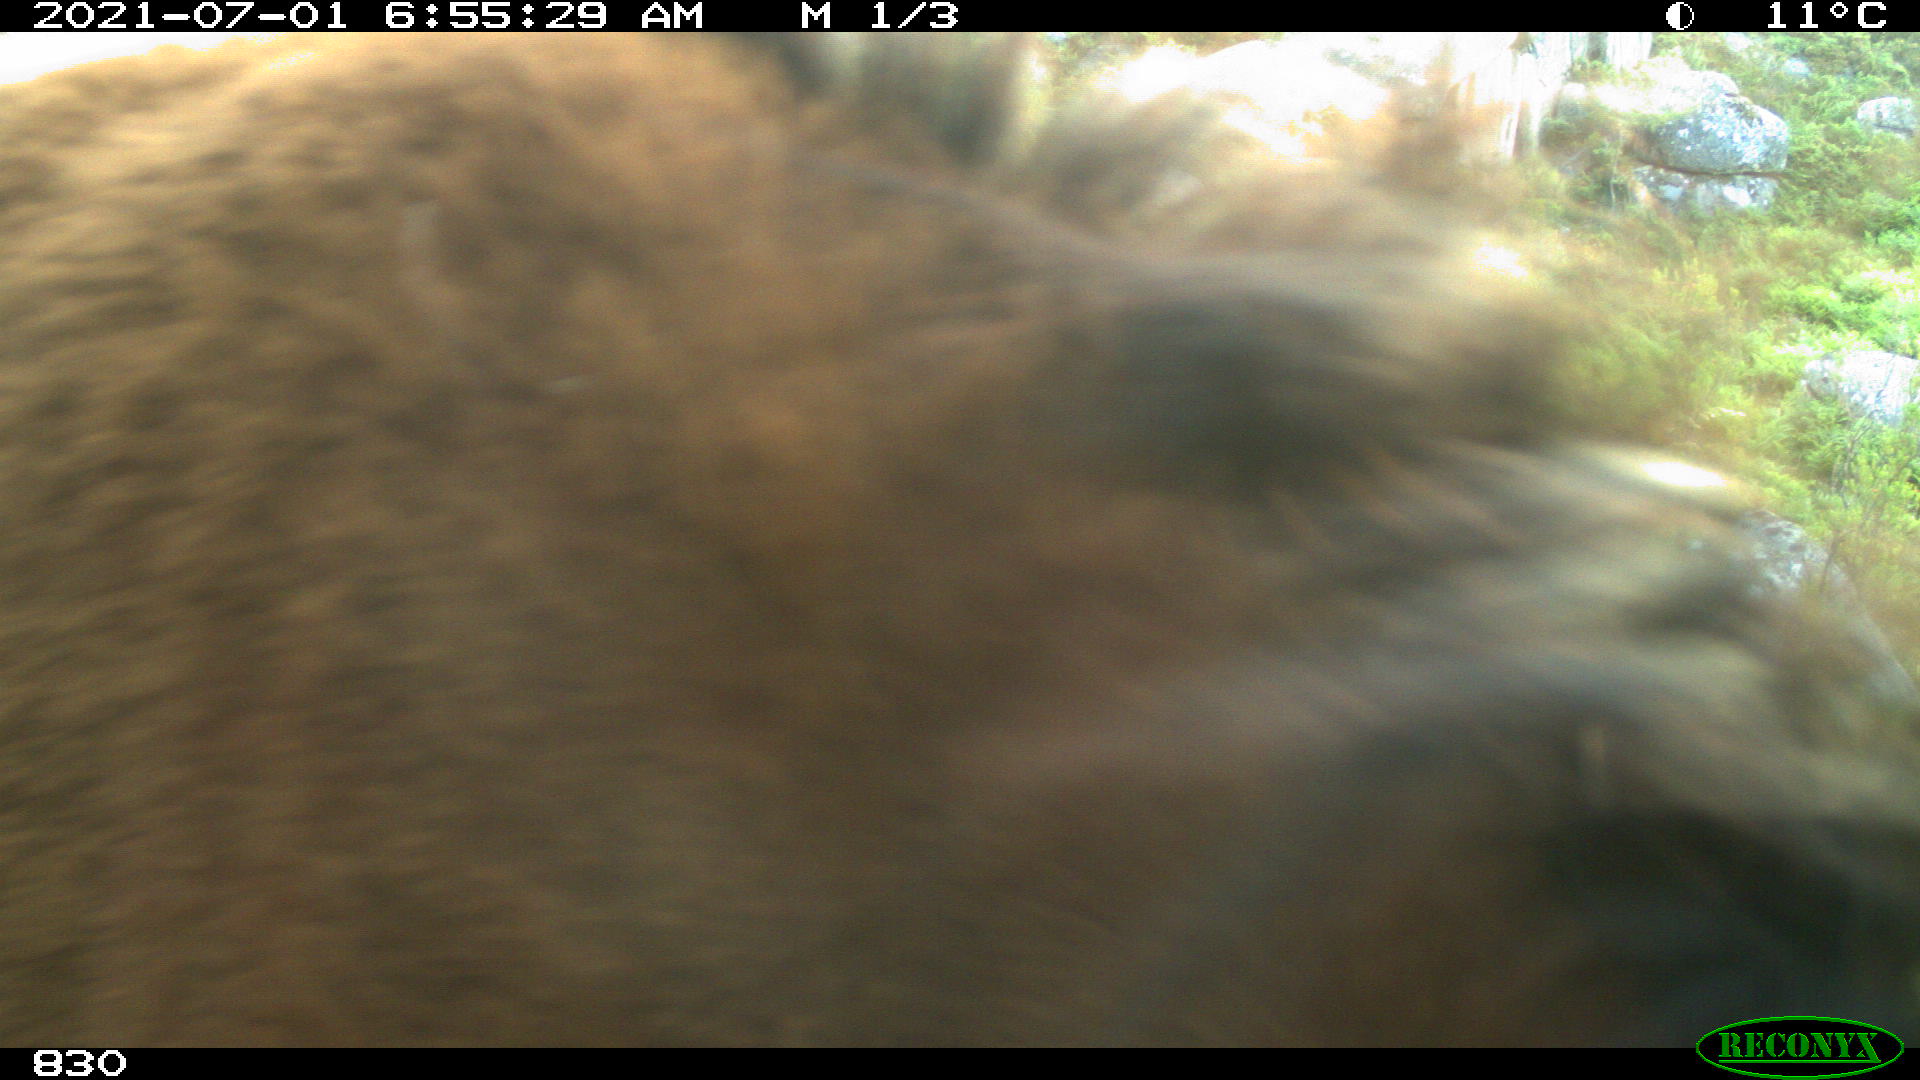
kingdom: Animalia
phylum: Chordata
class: Mammalia
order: Perissodactyla
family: Equidae
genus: Equus
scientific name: Equus caballus
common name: Horse
